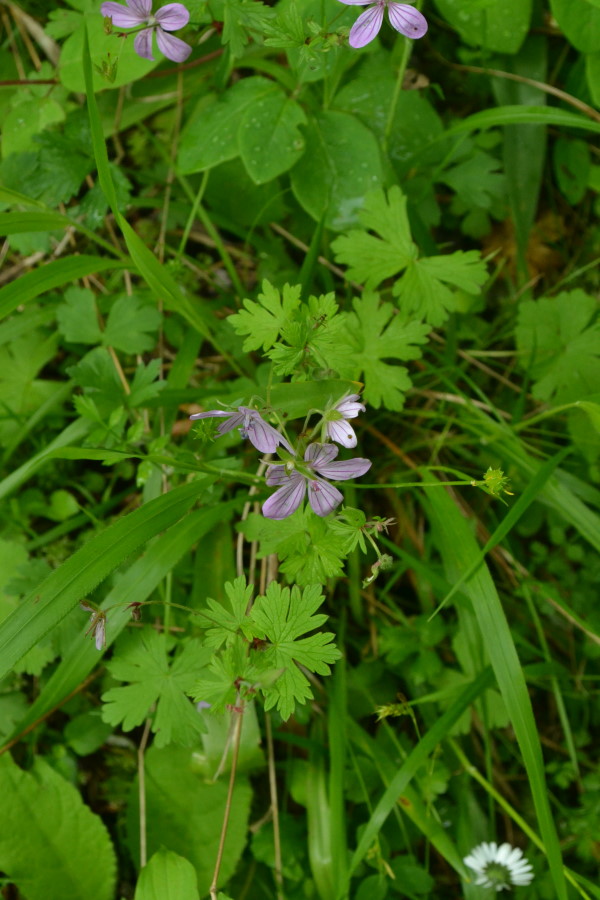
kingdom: Plantae
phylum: Tracheophyta
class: Magnoliopsida
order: Geraniales
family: Geraniaceae
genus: Geranium
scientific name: Geranium collinum
